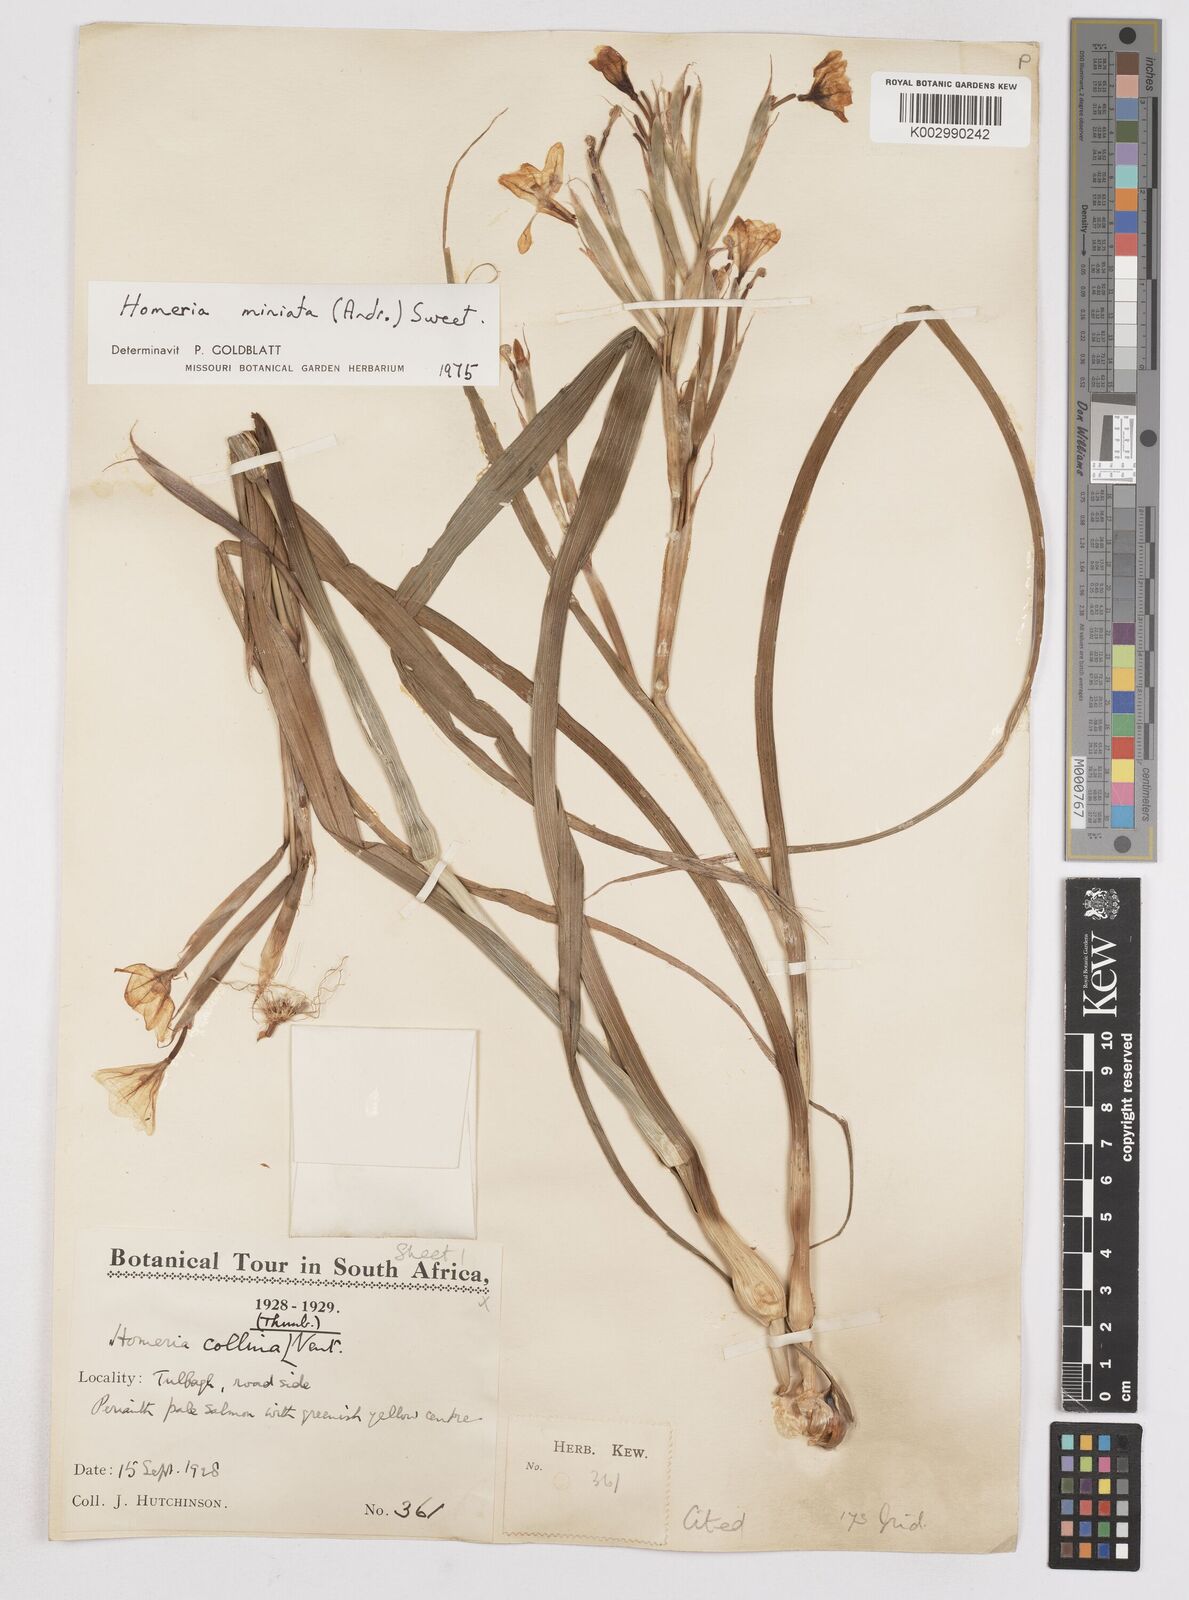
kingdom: Plantae
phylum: Tracheophyta
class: Liliopsida
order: Asparagales
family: Iridaceae
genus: Moraea
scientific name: Moraea miniata
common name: Two-leaf cape-tulip
